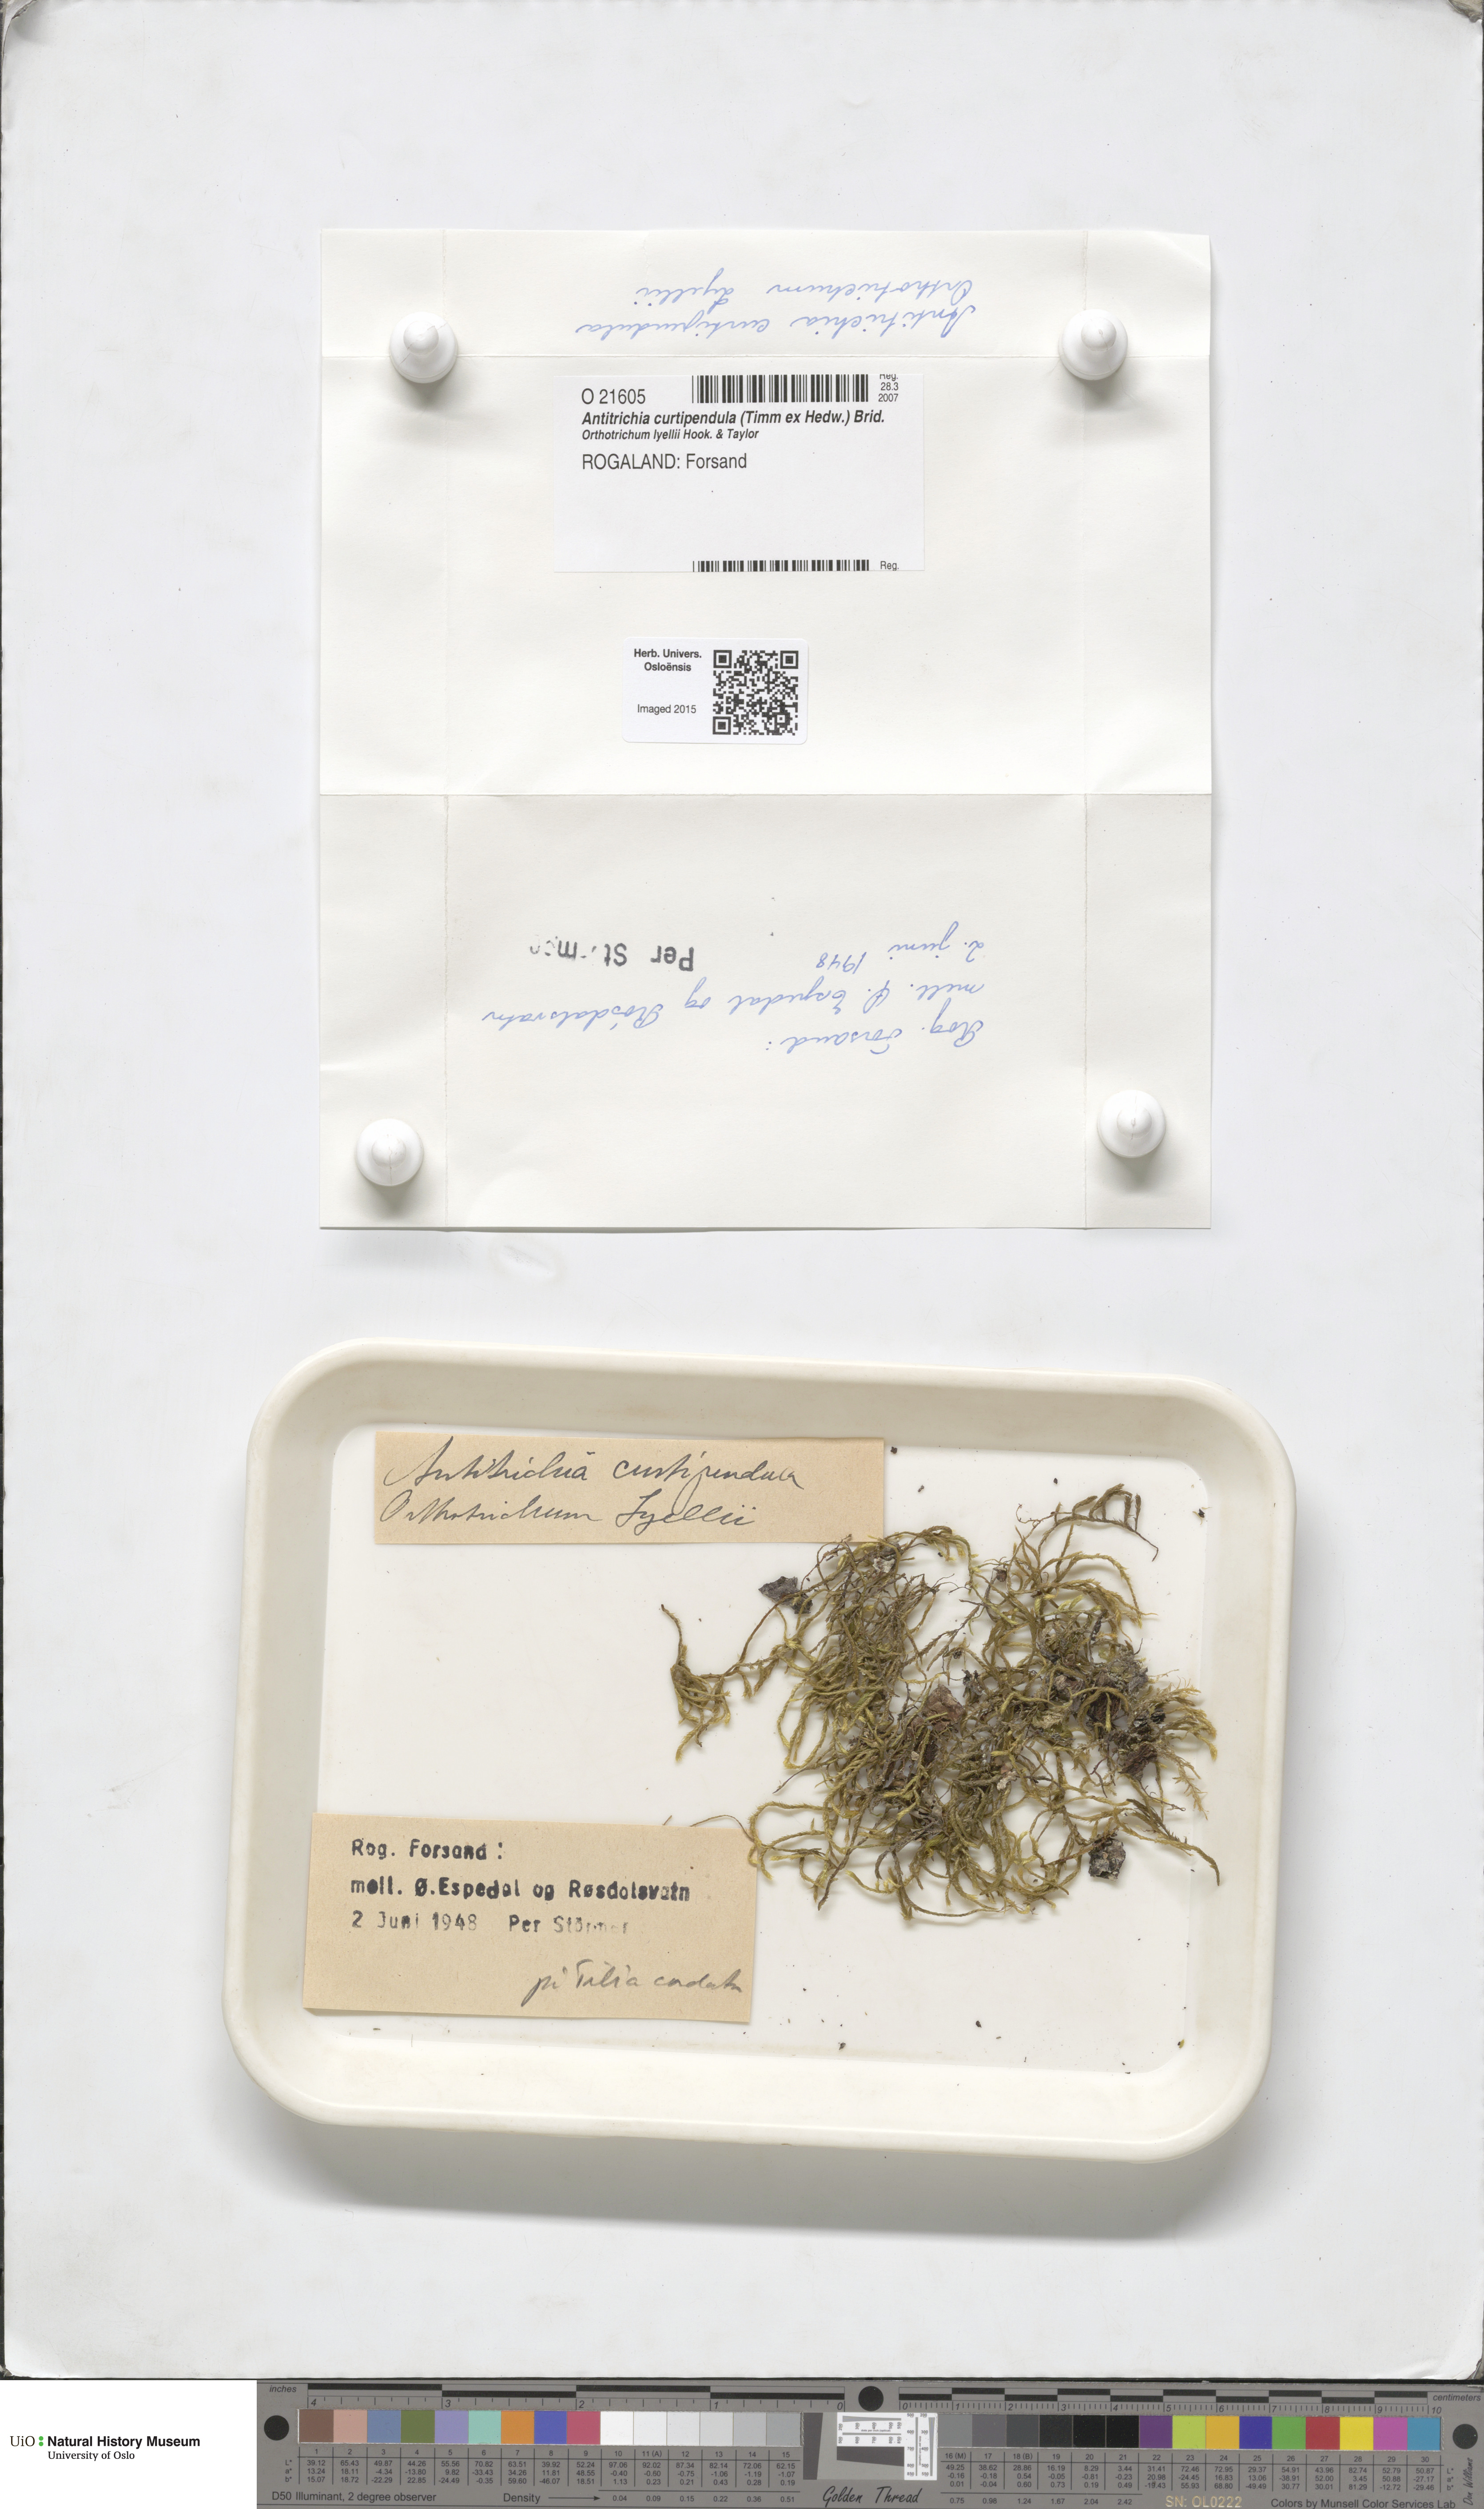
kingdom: Plantae
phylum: Bryophyta
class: Bryopsida
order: Hypnales
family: Antitrichiaceae
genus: Antitrichia
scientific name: Antitrichia curtipendula
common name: Pendulous wing-moss
